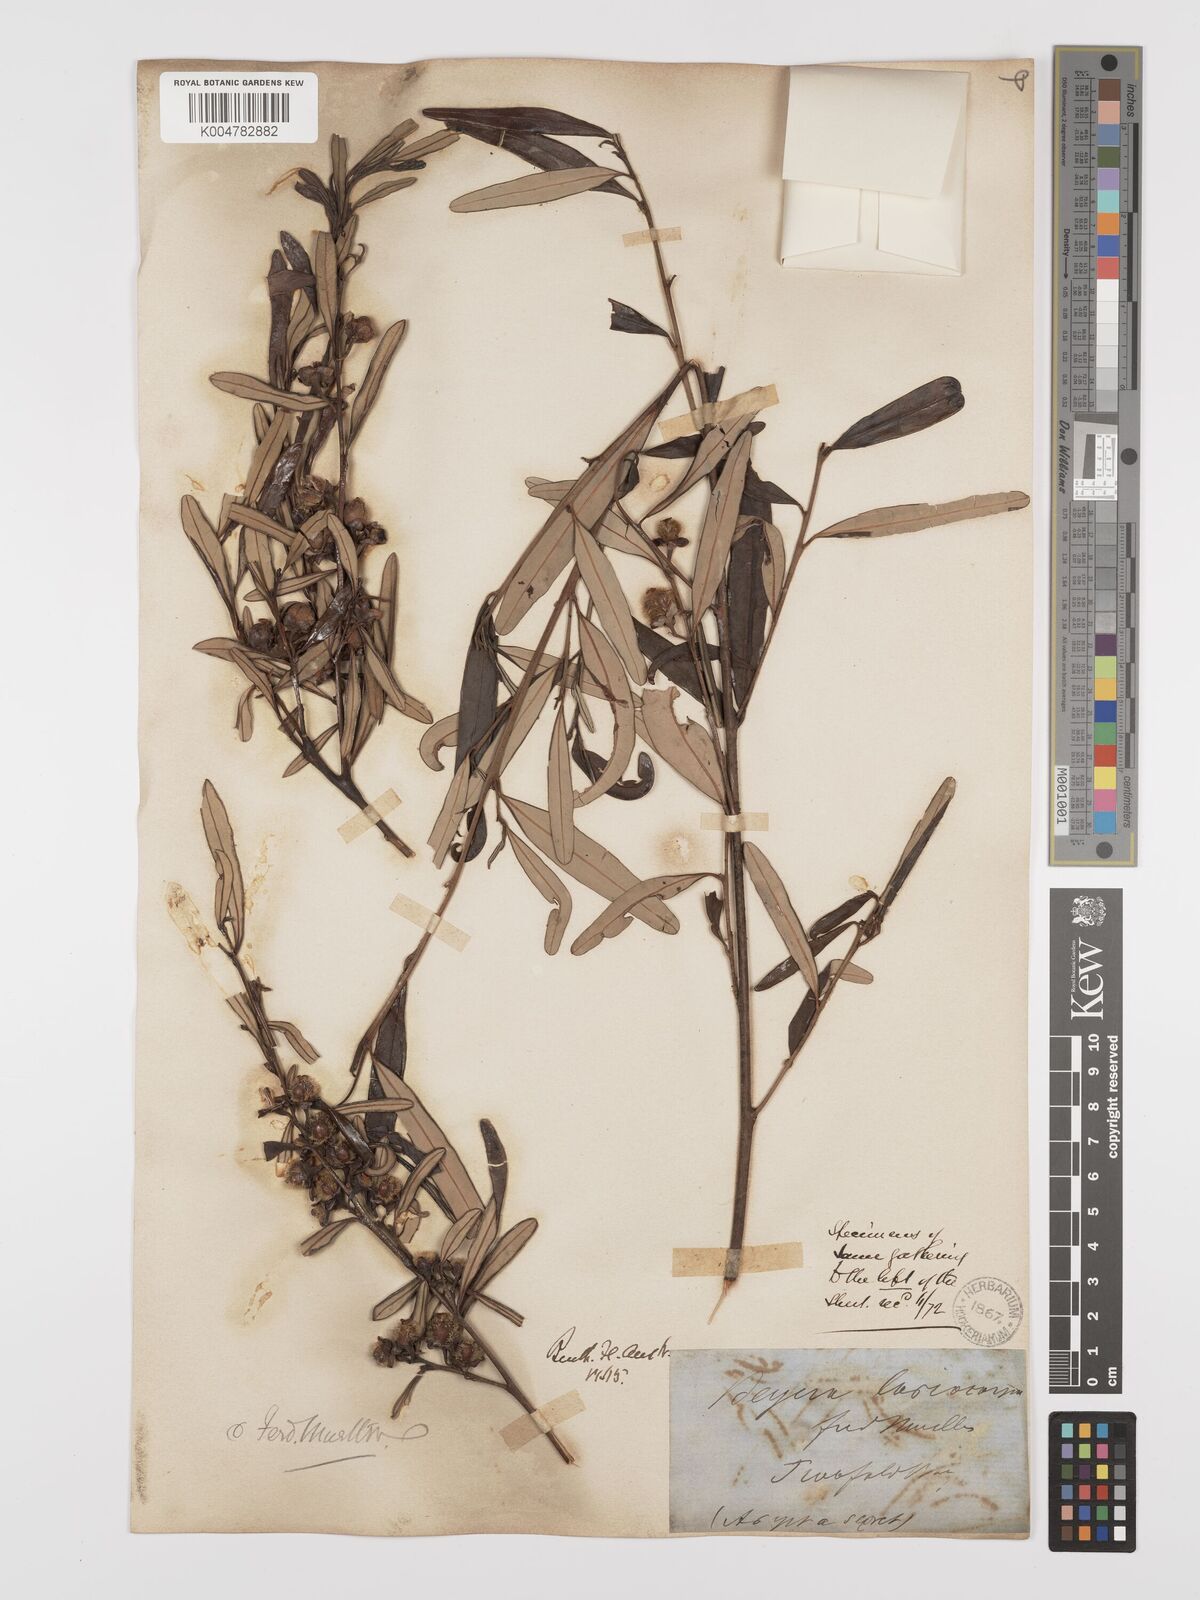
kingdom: Plantae
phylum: Tracheophyta
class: Magnoliopsida
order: Malpighiales
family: Euphorbiaceae
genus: Beyeria
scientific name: Beyeria lasiocarpa
